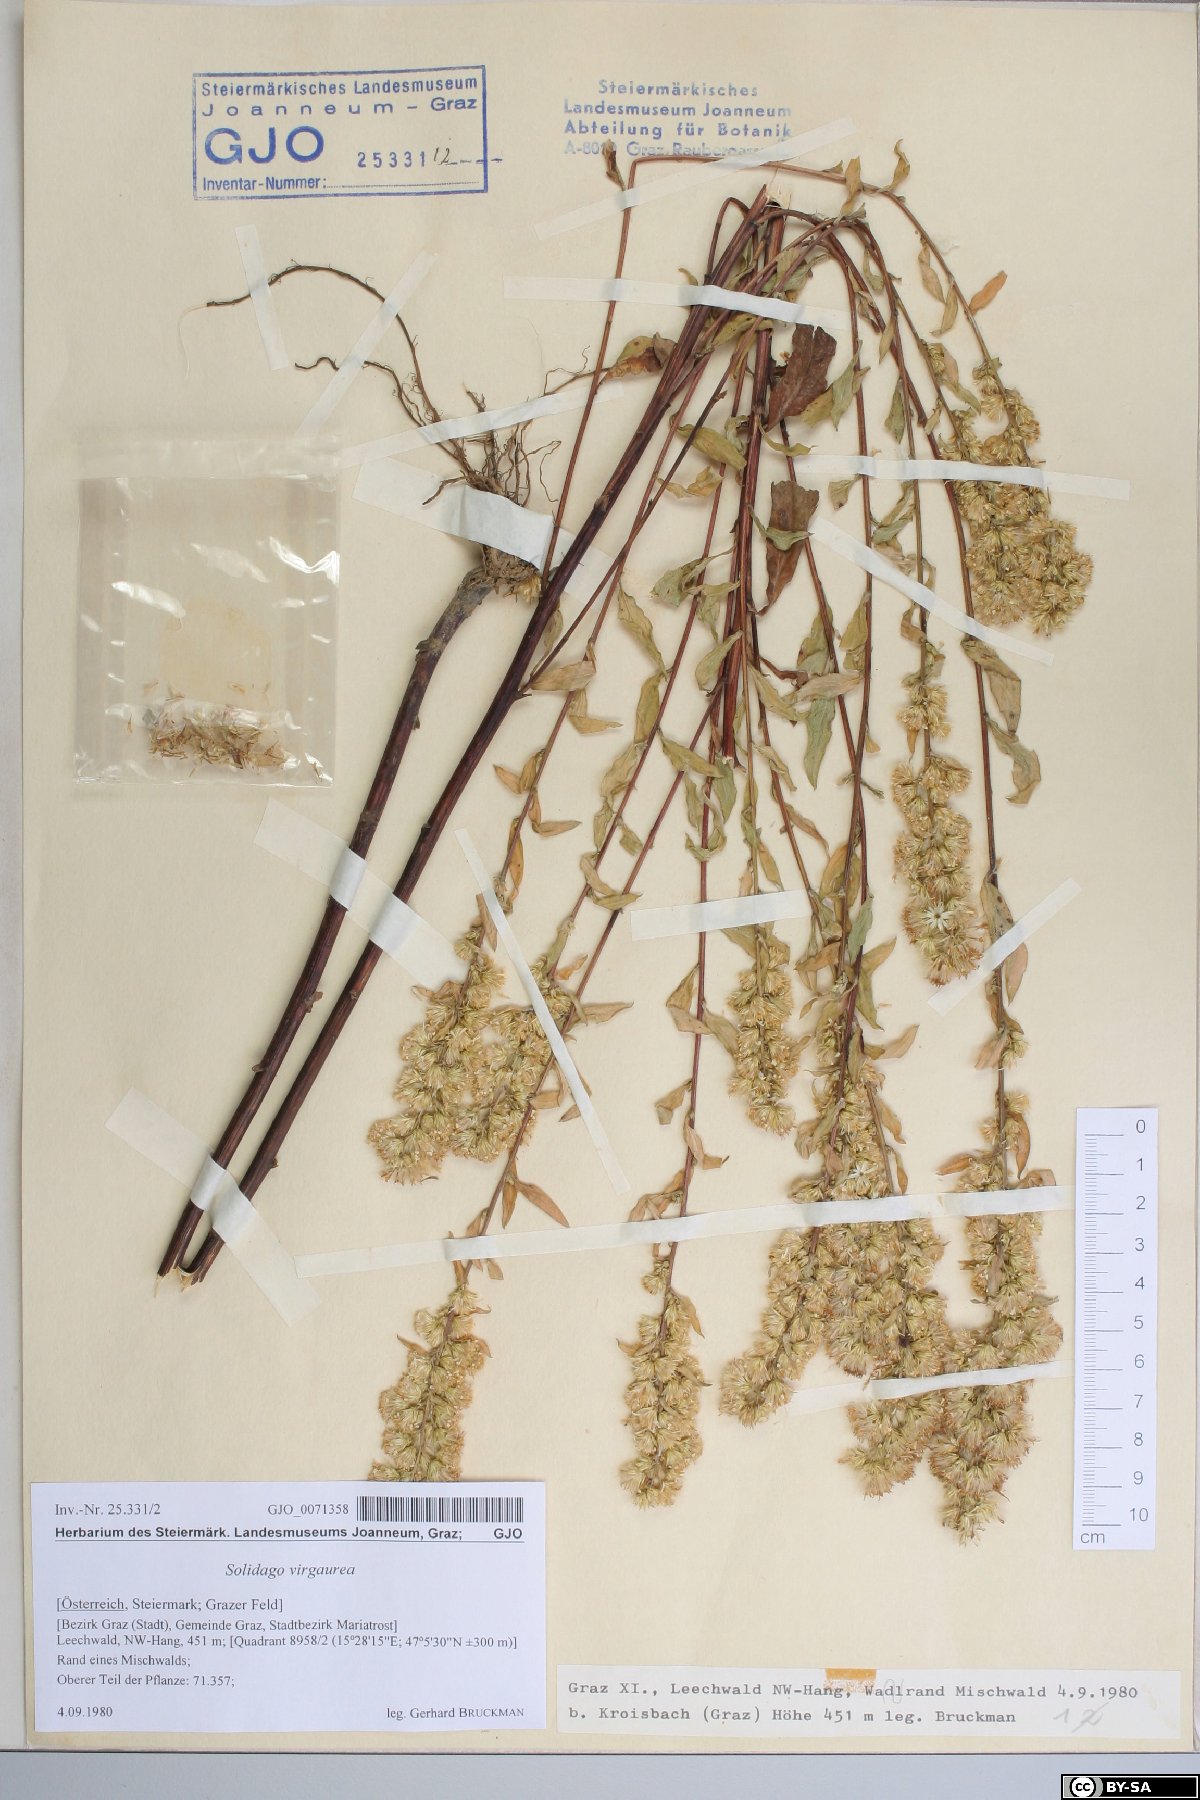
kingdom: Plantae
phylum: Tracheophyta
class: Magnoliopsida
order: Asterales
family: Asteraceae
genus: Solidago
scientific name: Solidago virgaurea
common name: Goldenrod
